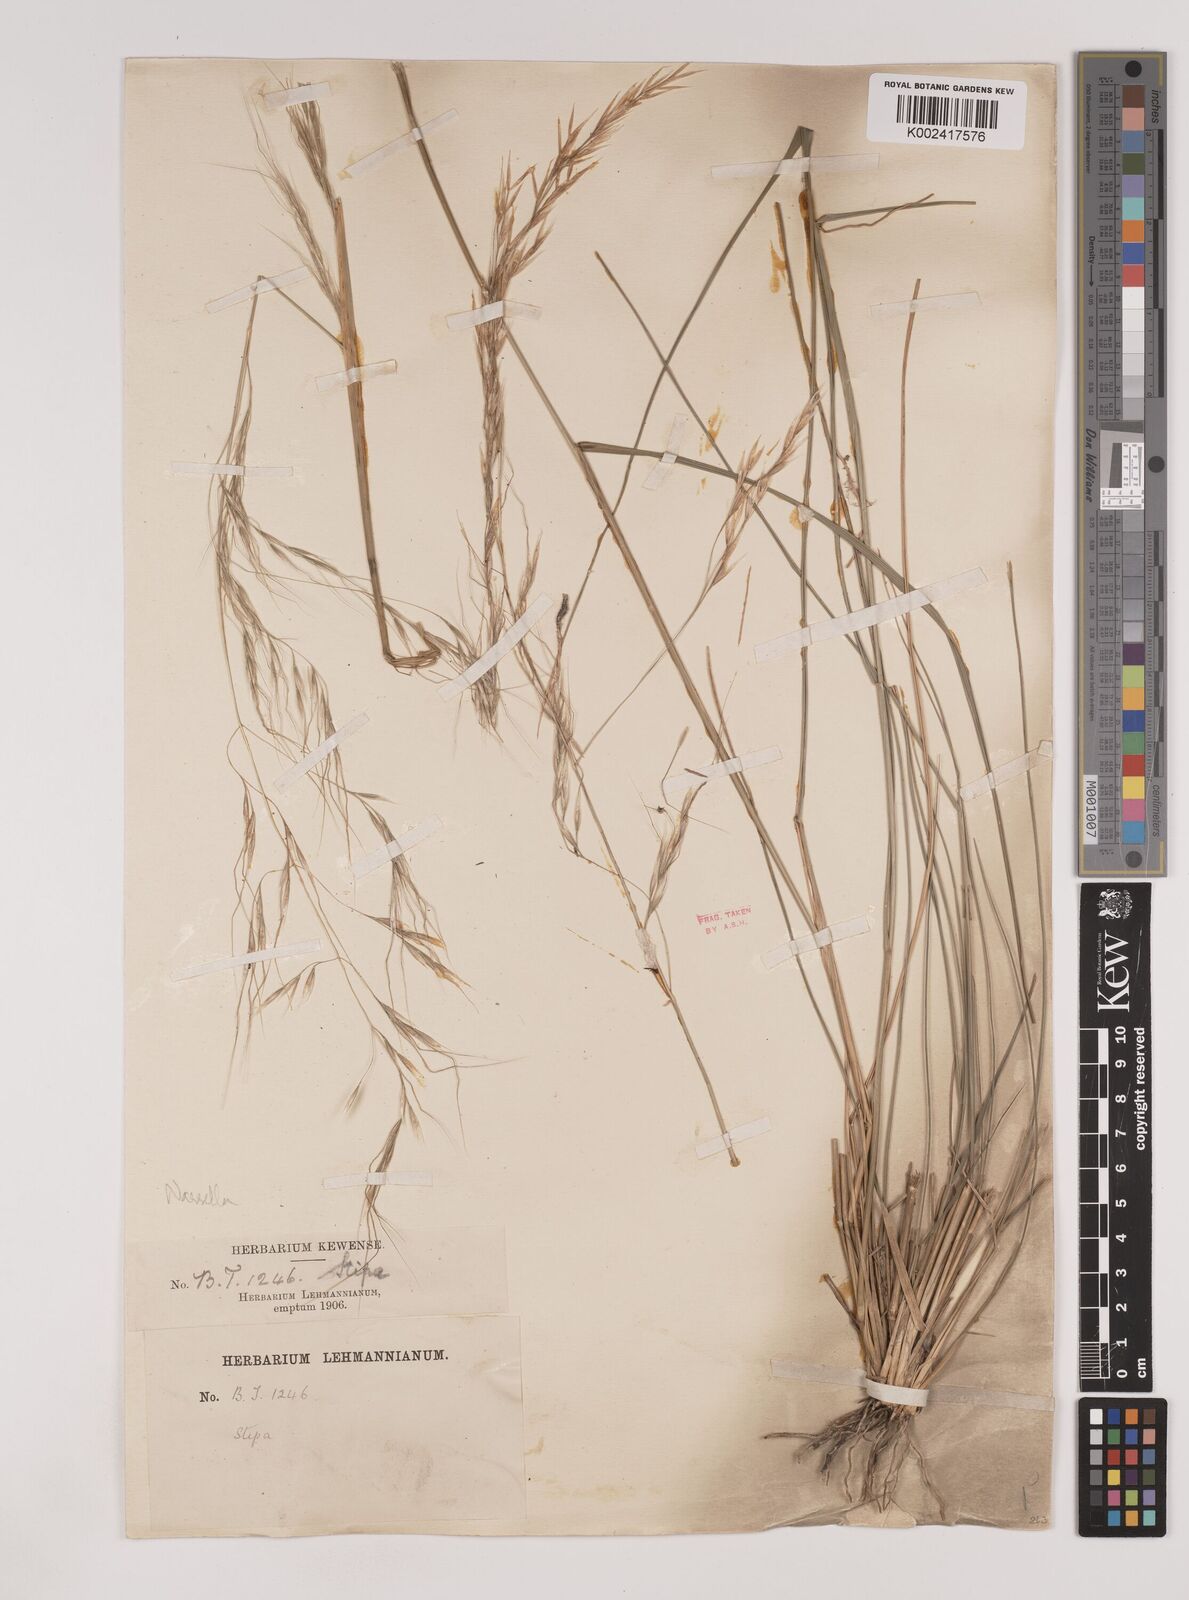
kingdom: Plantae
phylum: Tracheophyta
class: Liliopsida
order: Poales
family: Poaceae
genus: Nassella
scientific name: Nassella
